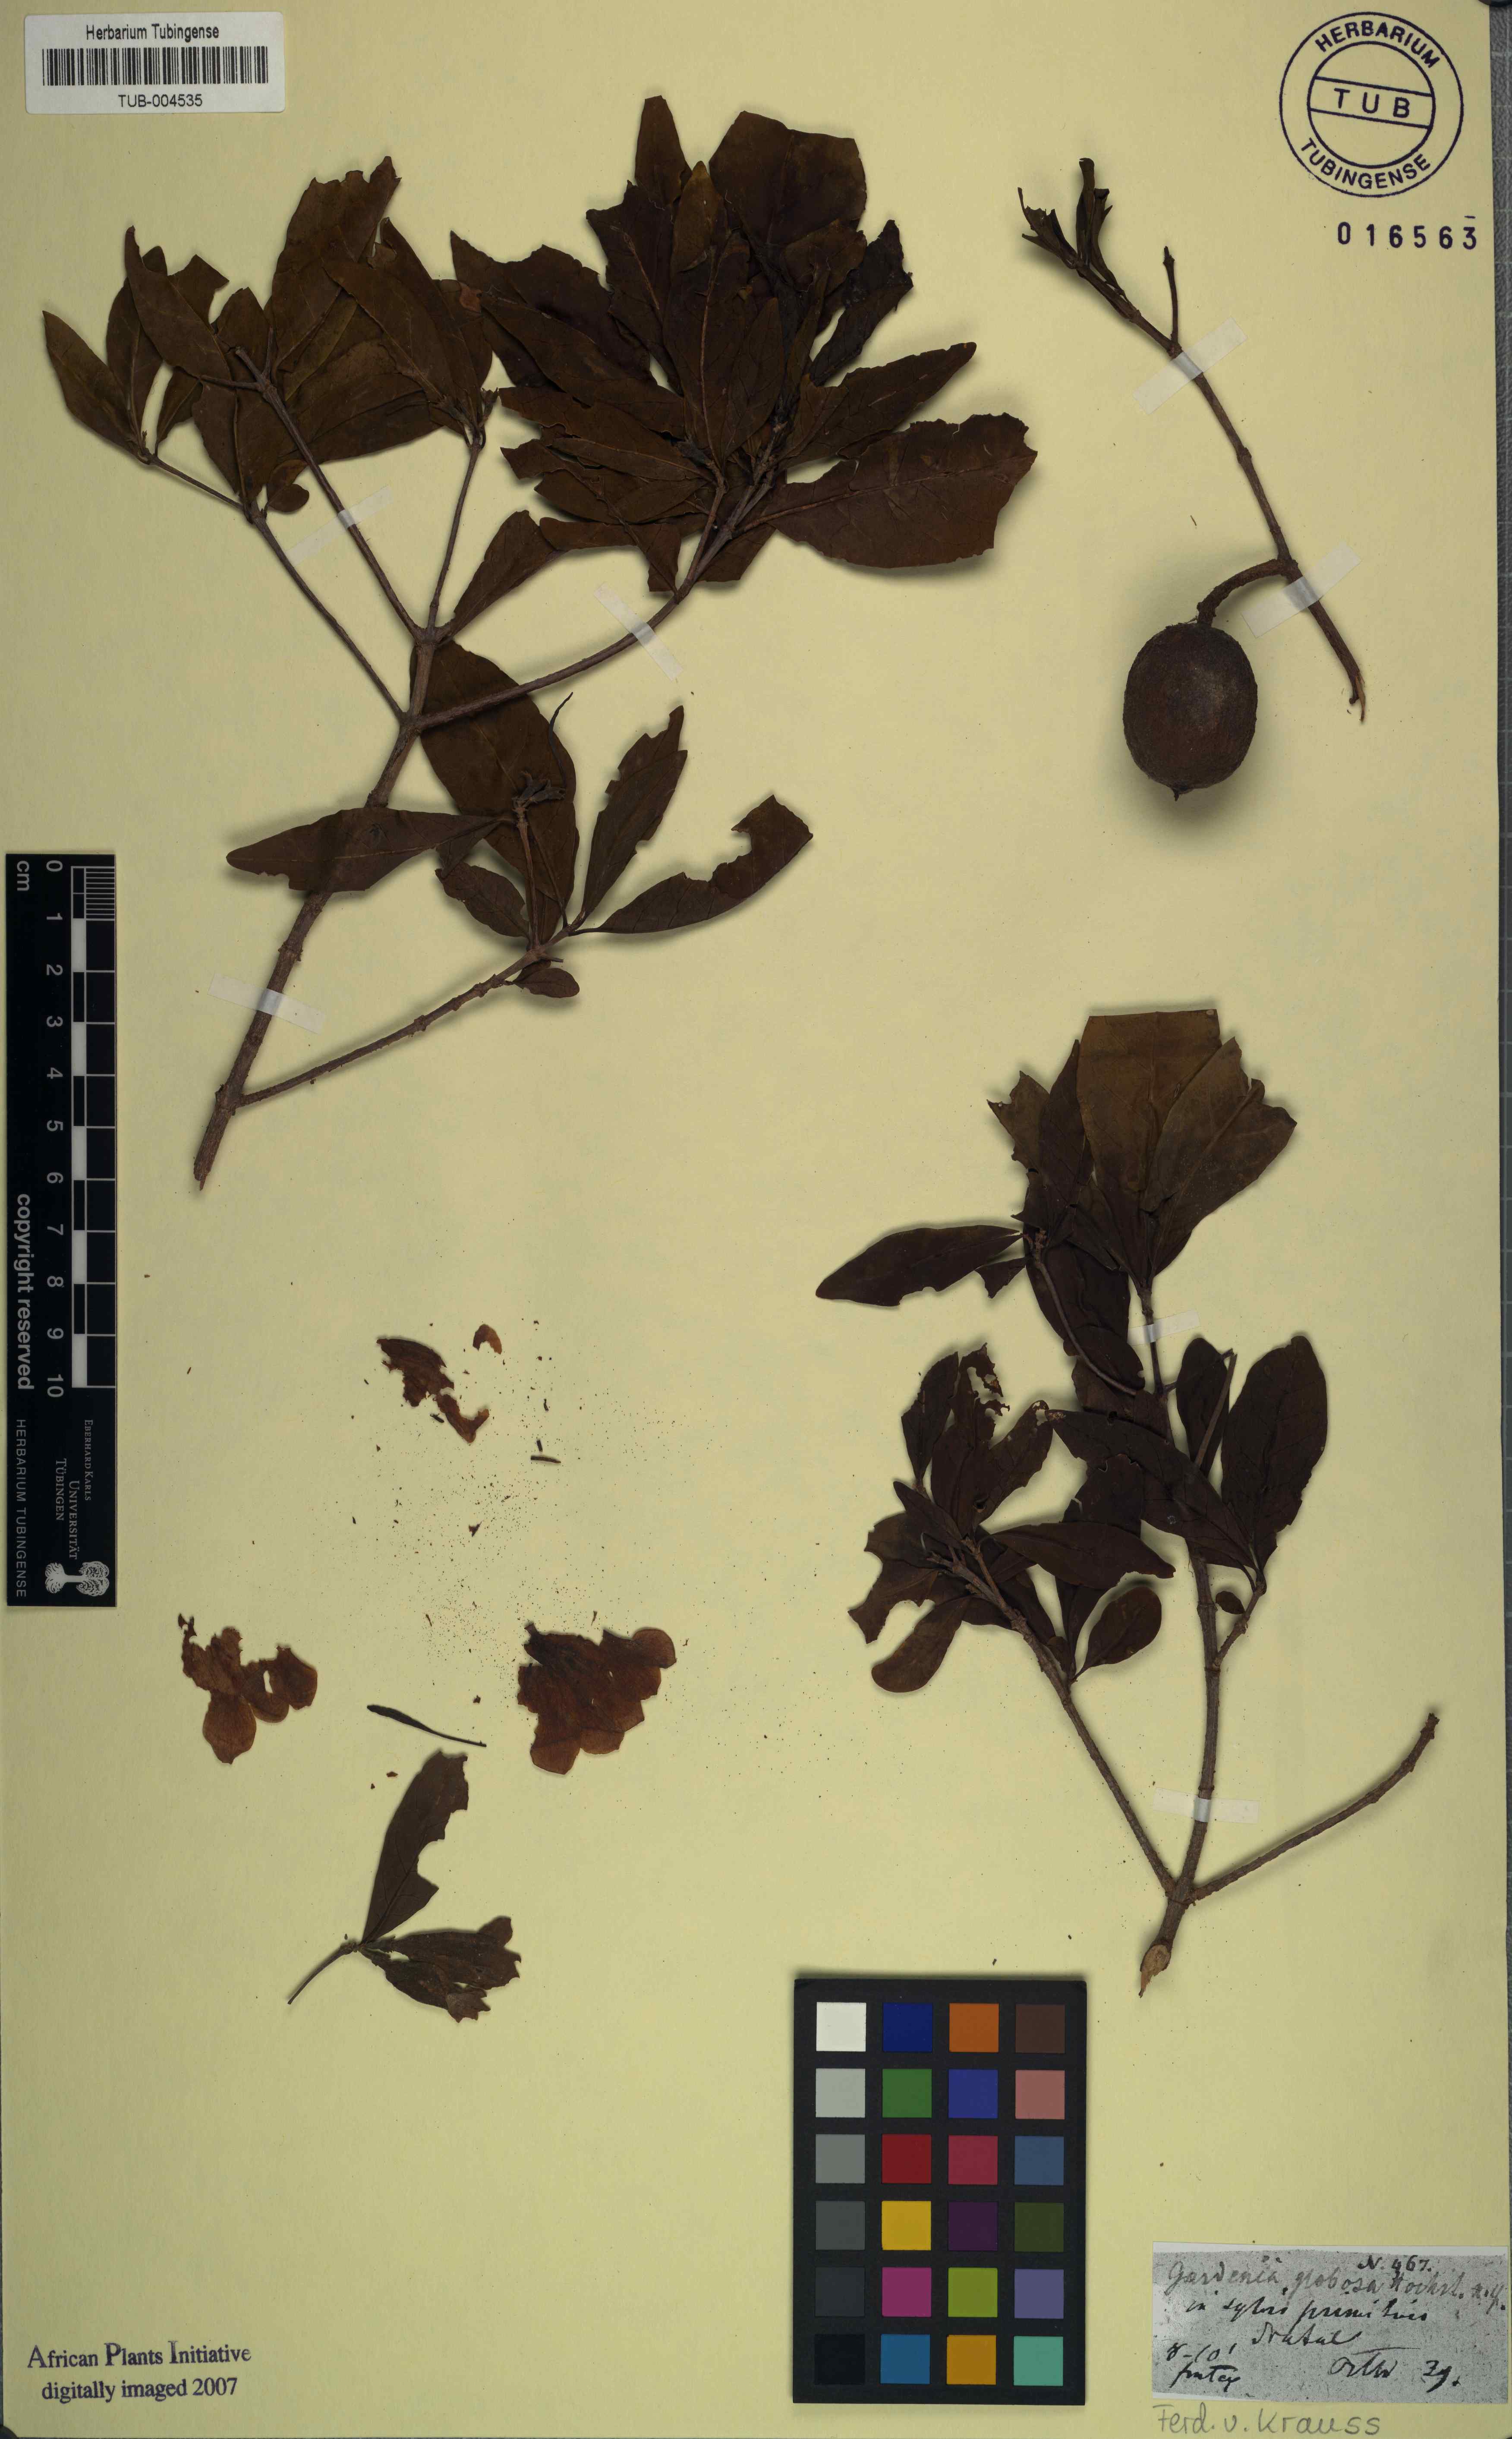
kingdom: Plantae
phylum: Tracheophyta
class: Magnoliopsida
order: Gentianales
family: Rubiaceae
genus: Rothmannia
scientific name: Rothmannia globosa
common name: September bells
